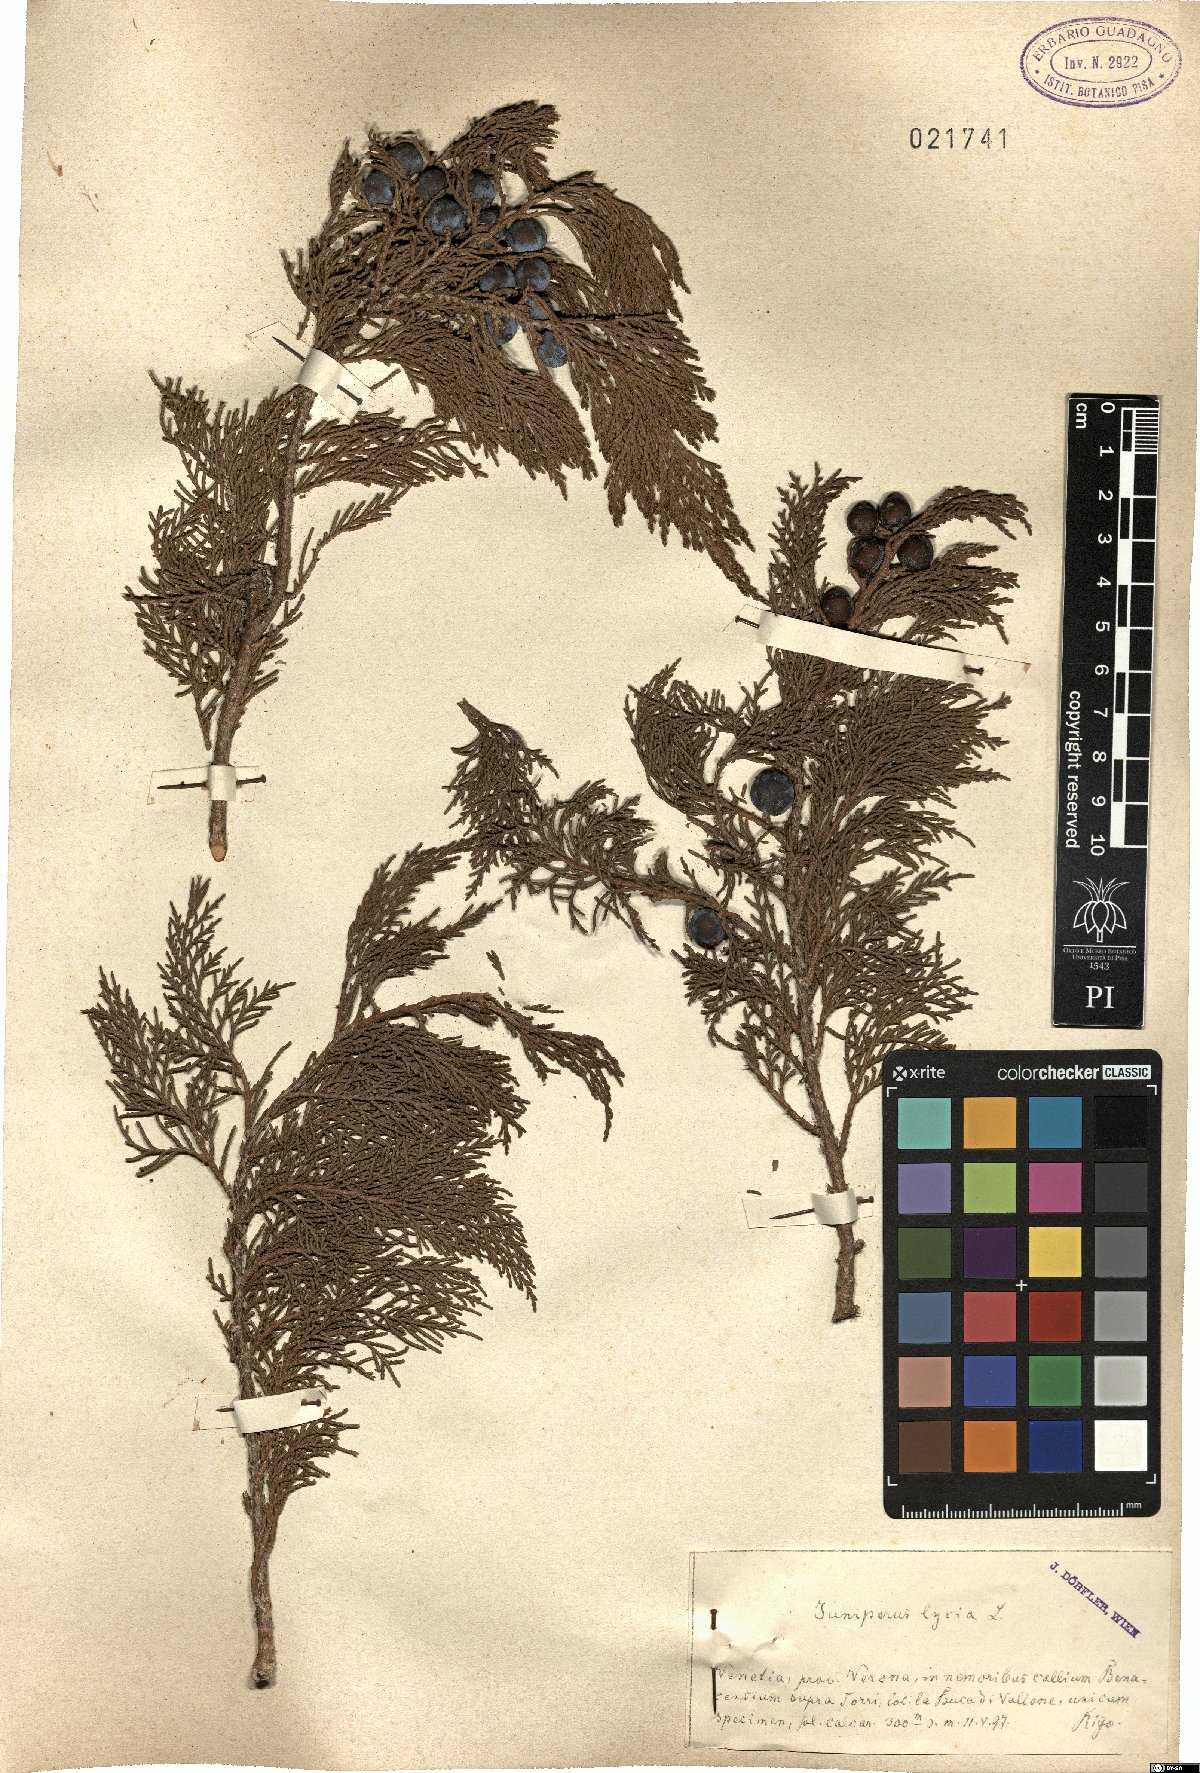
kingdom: Plantae
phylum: Tracheophyta
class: Pinopsida
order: Pinales
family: Cupressaceae
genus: Juniperus
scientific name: Juniperus
